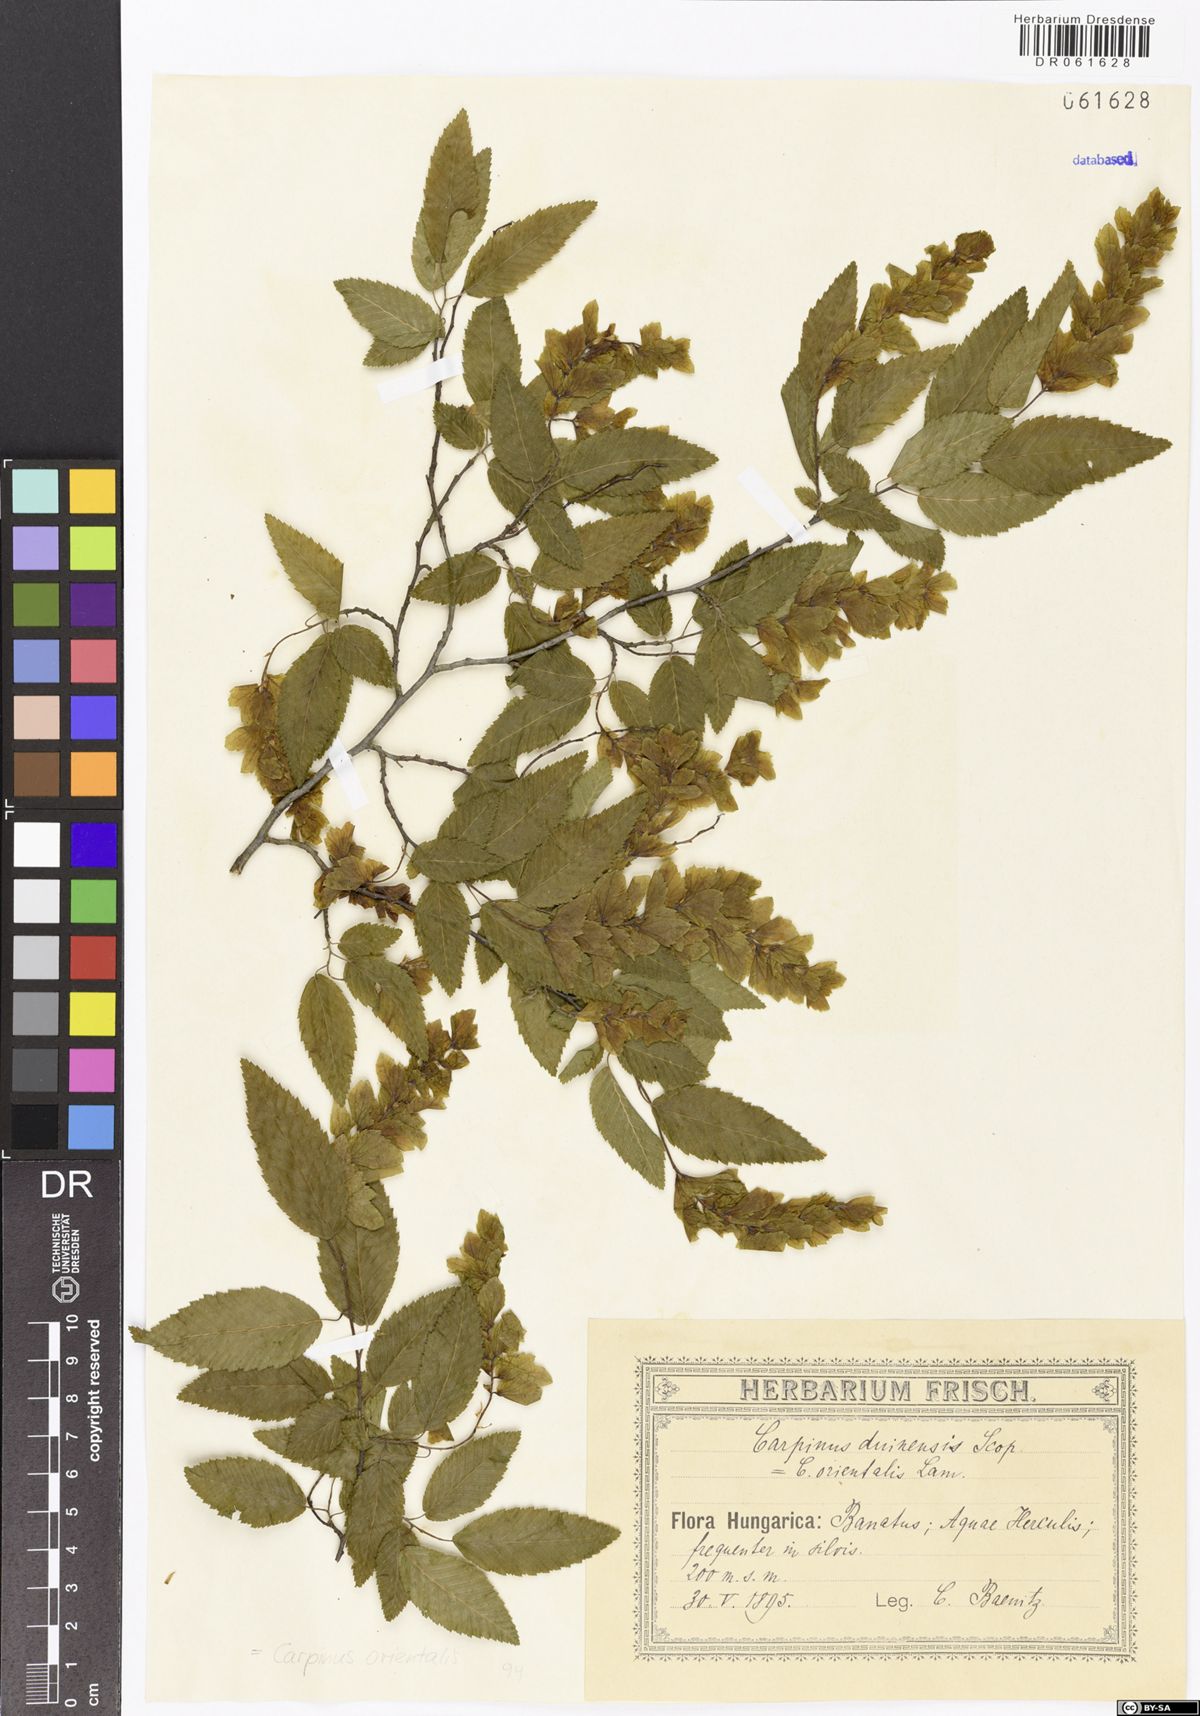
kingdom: Plantae
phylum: Tracheophyta
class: Magnoliopsida
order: Fagales
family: Betulaceae
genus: Carpinus
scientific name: Carpinus orientalis
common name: Eastern hornbeam
